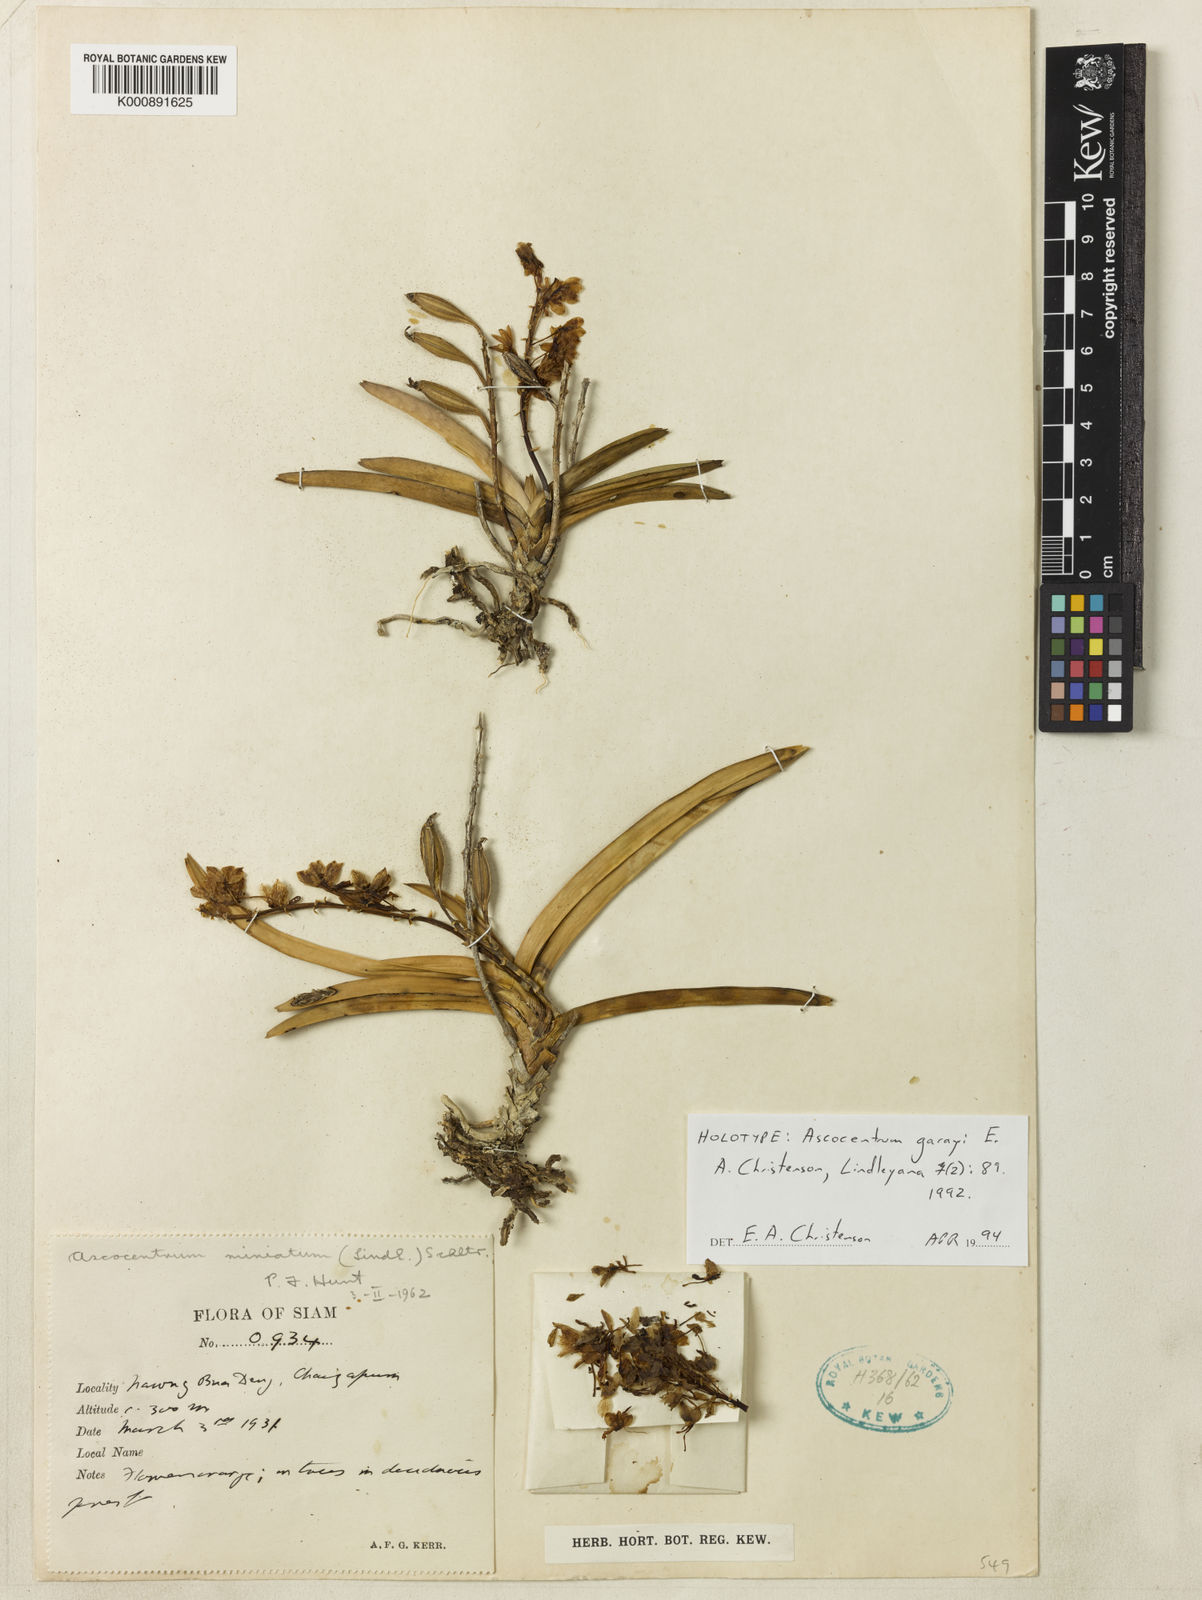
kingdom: Plantae
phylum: Tracheophyta
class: Liliopsida
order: Asparagales
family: Orchidaceae
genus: Vanda
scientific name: Vanda garayi
